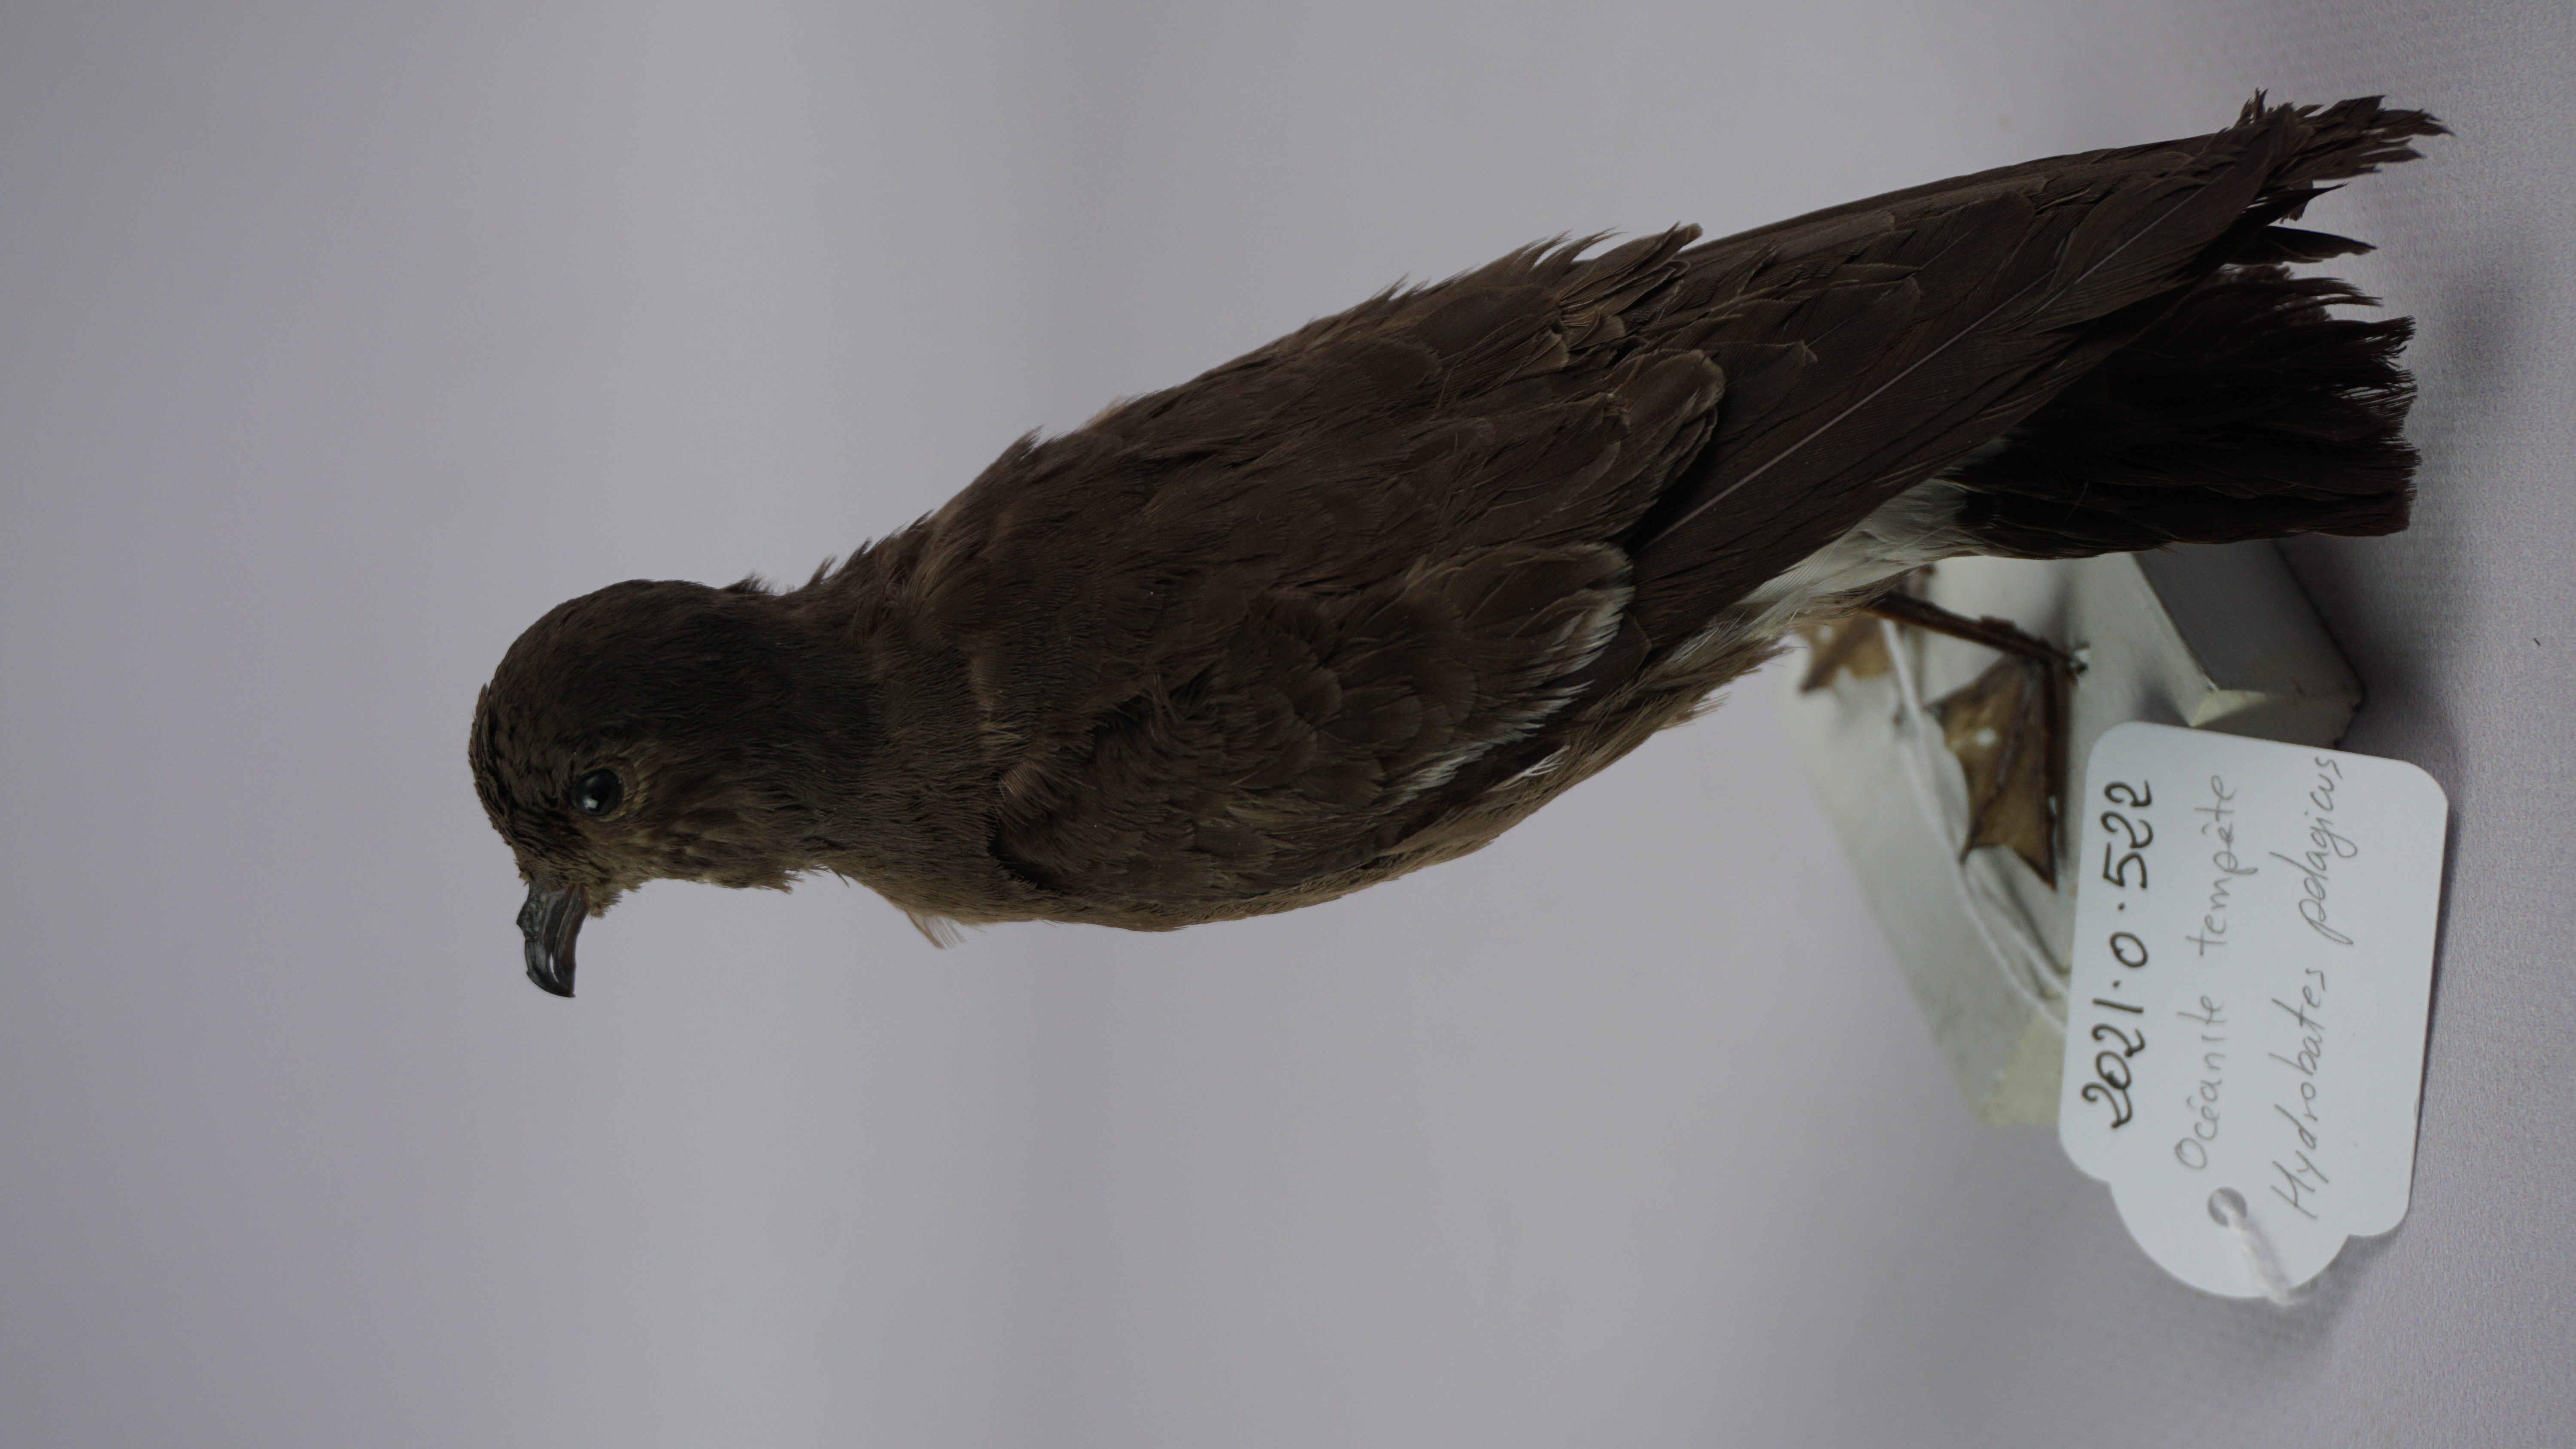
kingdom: Animalia
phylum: Chordata
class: Aves
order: Procellariiformes
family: Hydrobatidae
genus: Hydrobates
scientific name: Hydrobates pelagicus
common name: European storm-petrel
